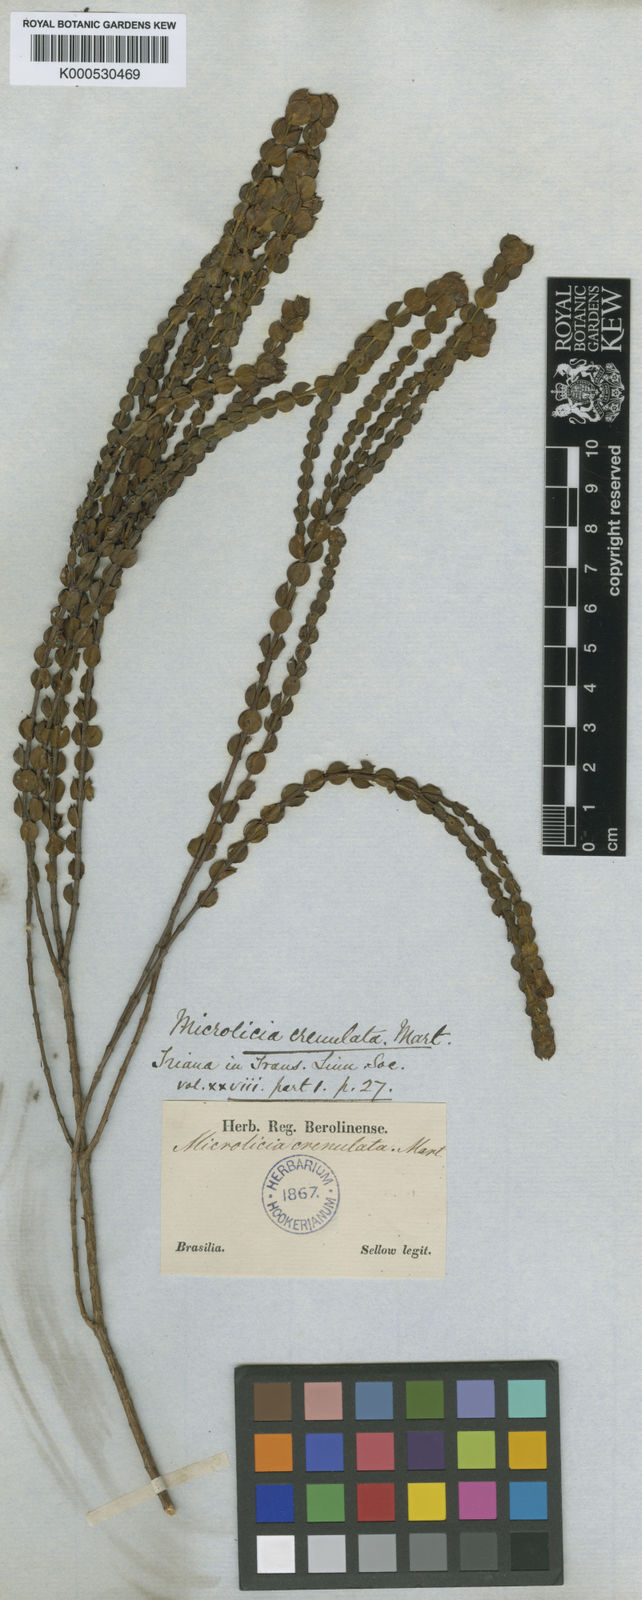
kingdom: Plantae
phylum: Tracheophyta
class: Magnoliopsida
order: Myrtales
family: Melastomataceae
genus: Microlicia
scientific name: Microlicia crenulata
